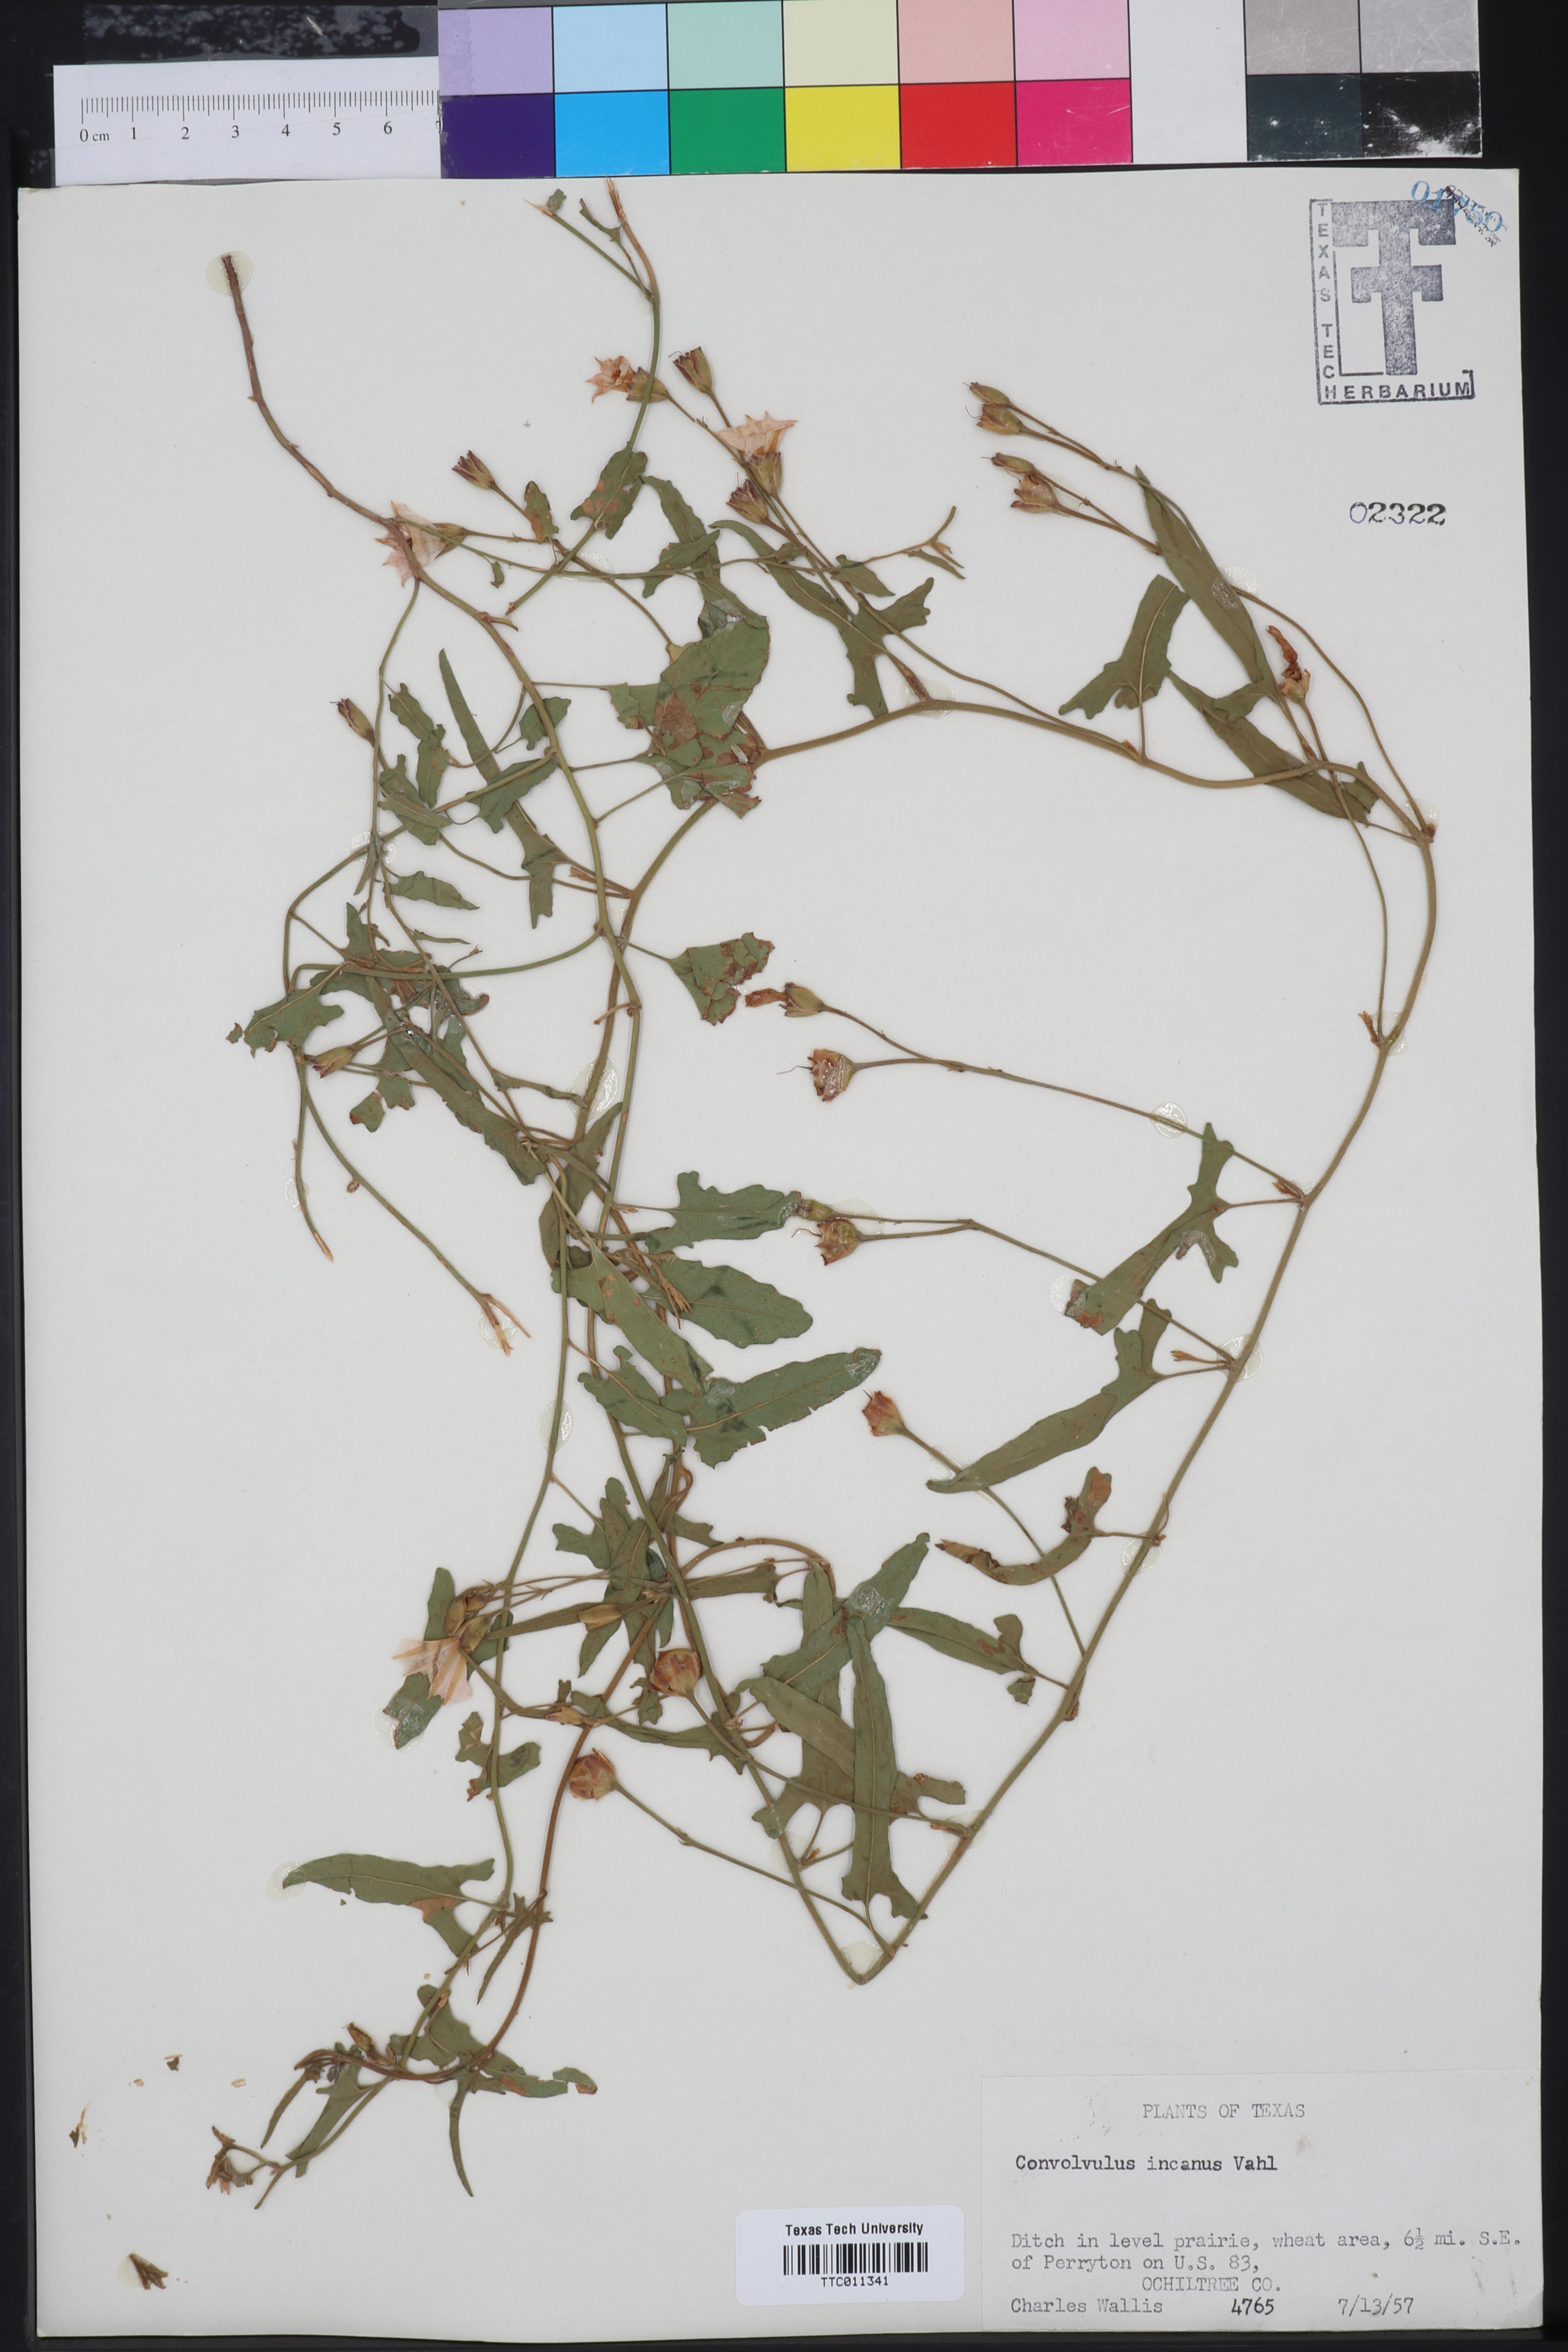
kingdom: Plantae
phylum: Tracheophyta
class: Magnoliopsida
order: Solanales
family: Convolvulaceae
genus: Convolvulus
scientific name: Convolvulus hermanniae
